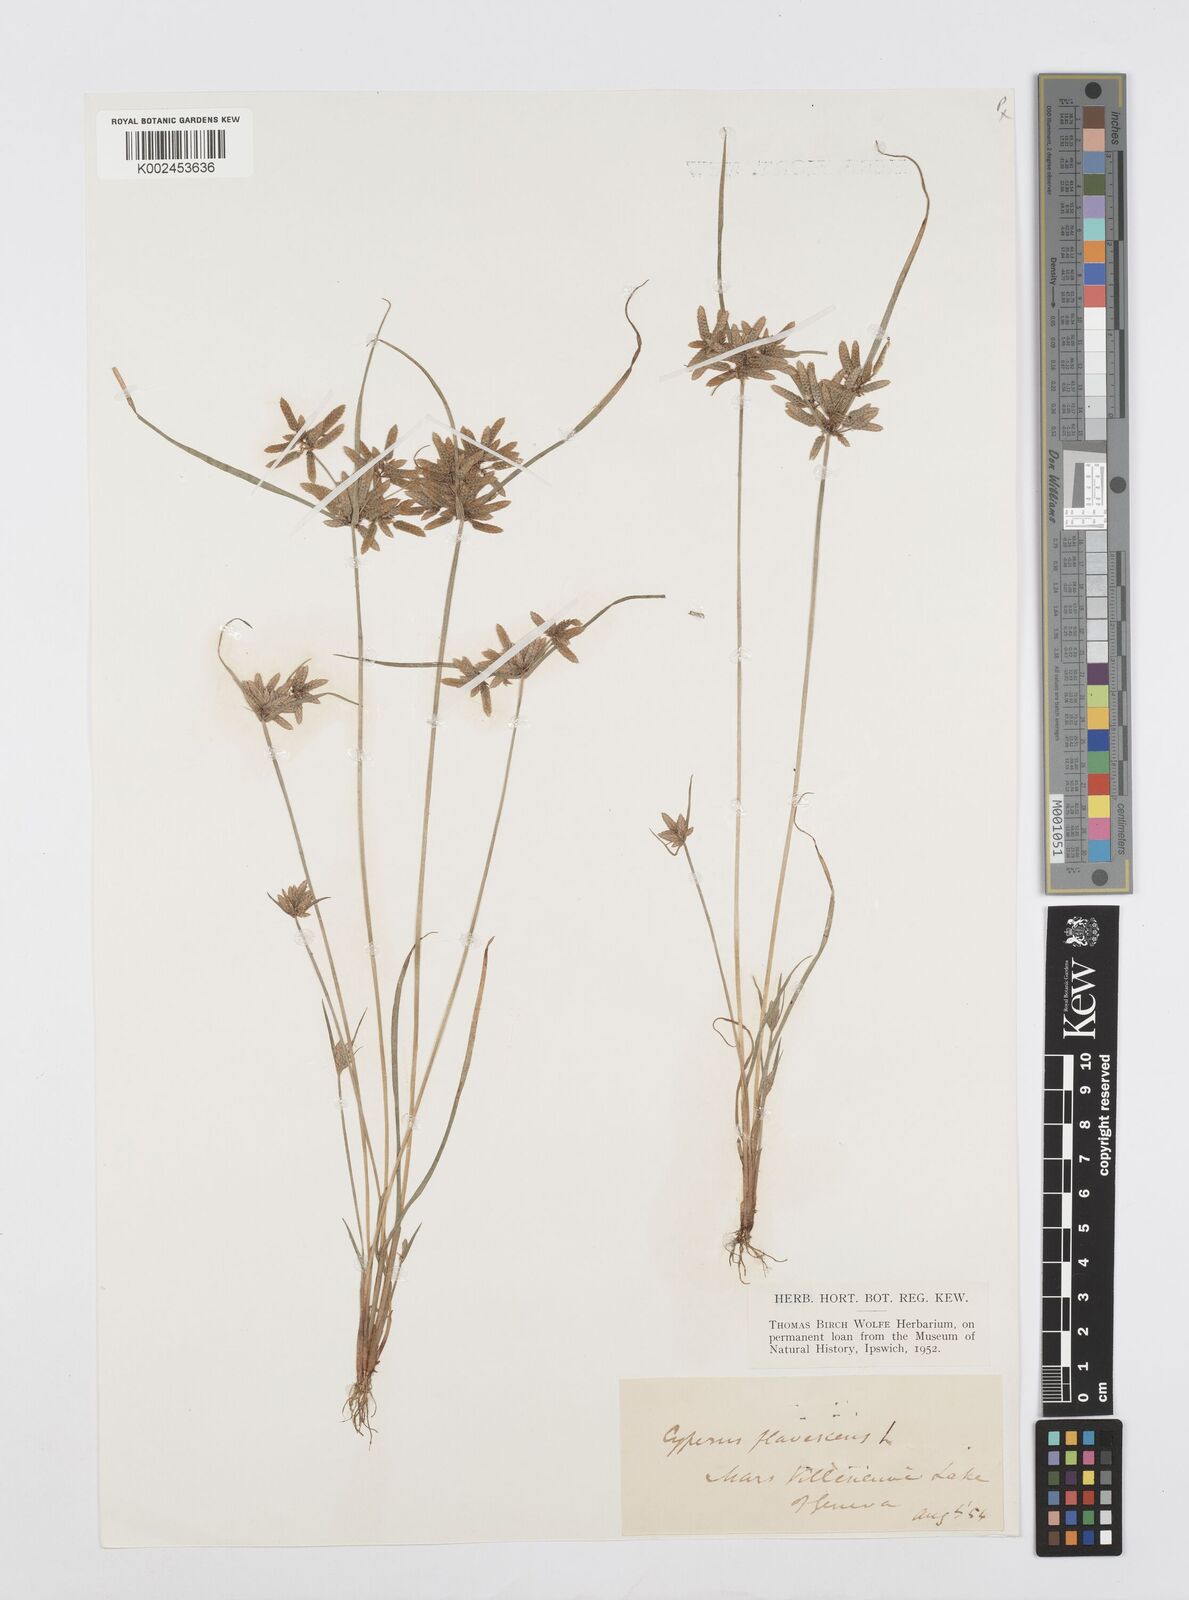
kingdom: Plantae
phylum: Tracheophyta
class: Liliopsida
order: Poales
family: Cyperaceae
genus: Cyperus
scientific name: Cyperus flavescens
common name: Yellow galingale
